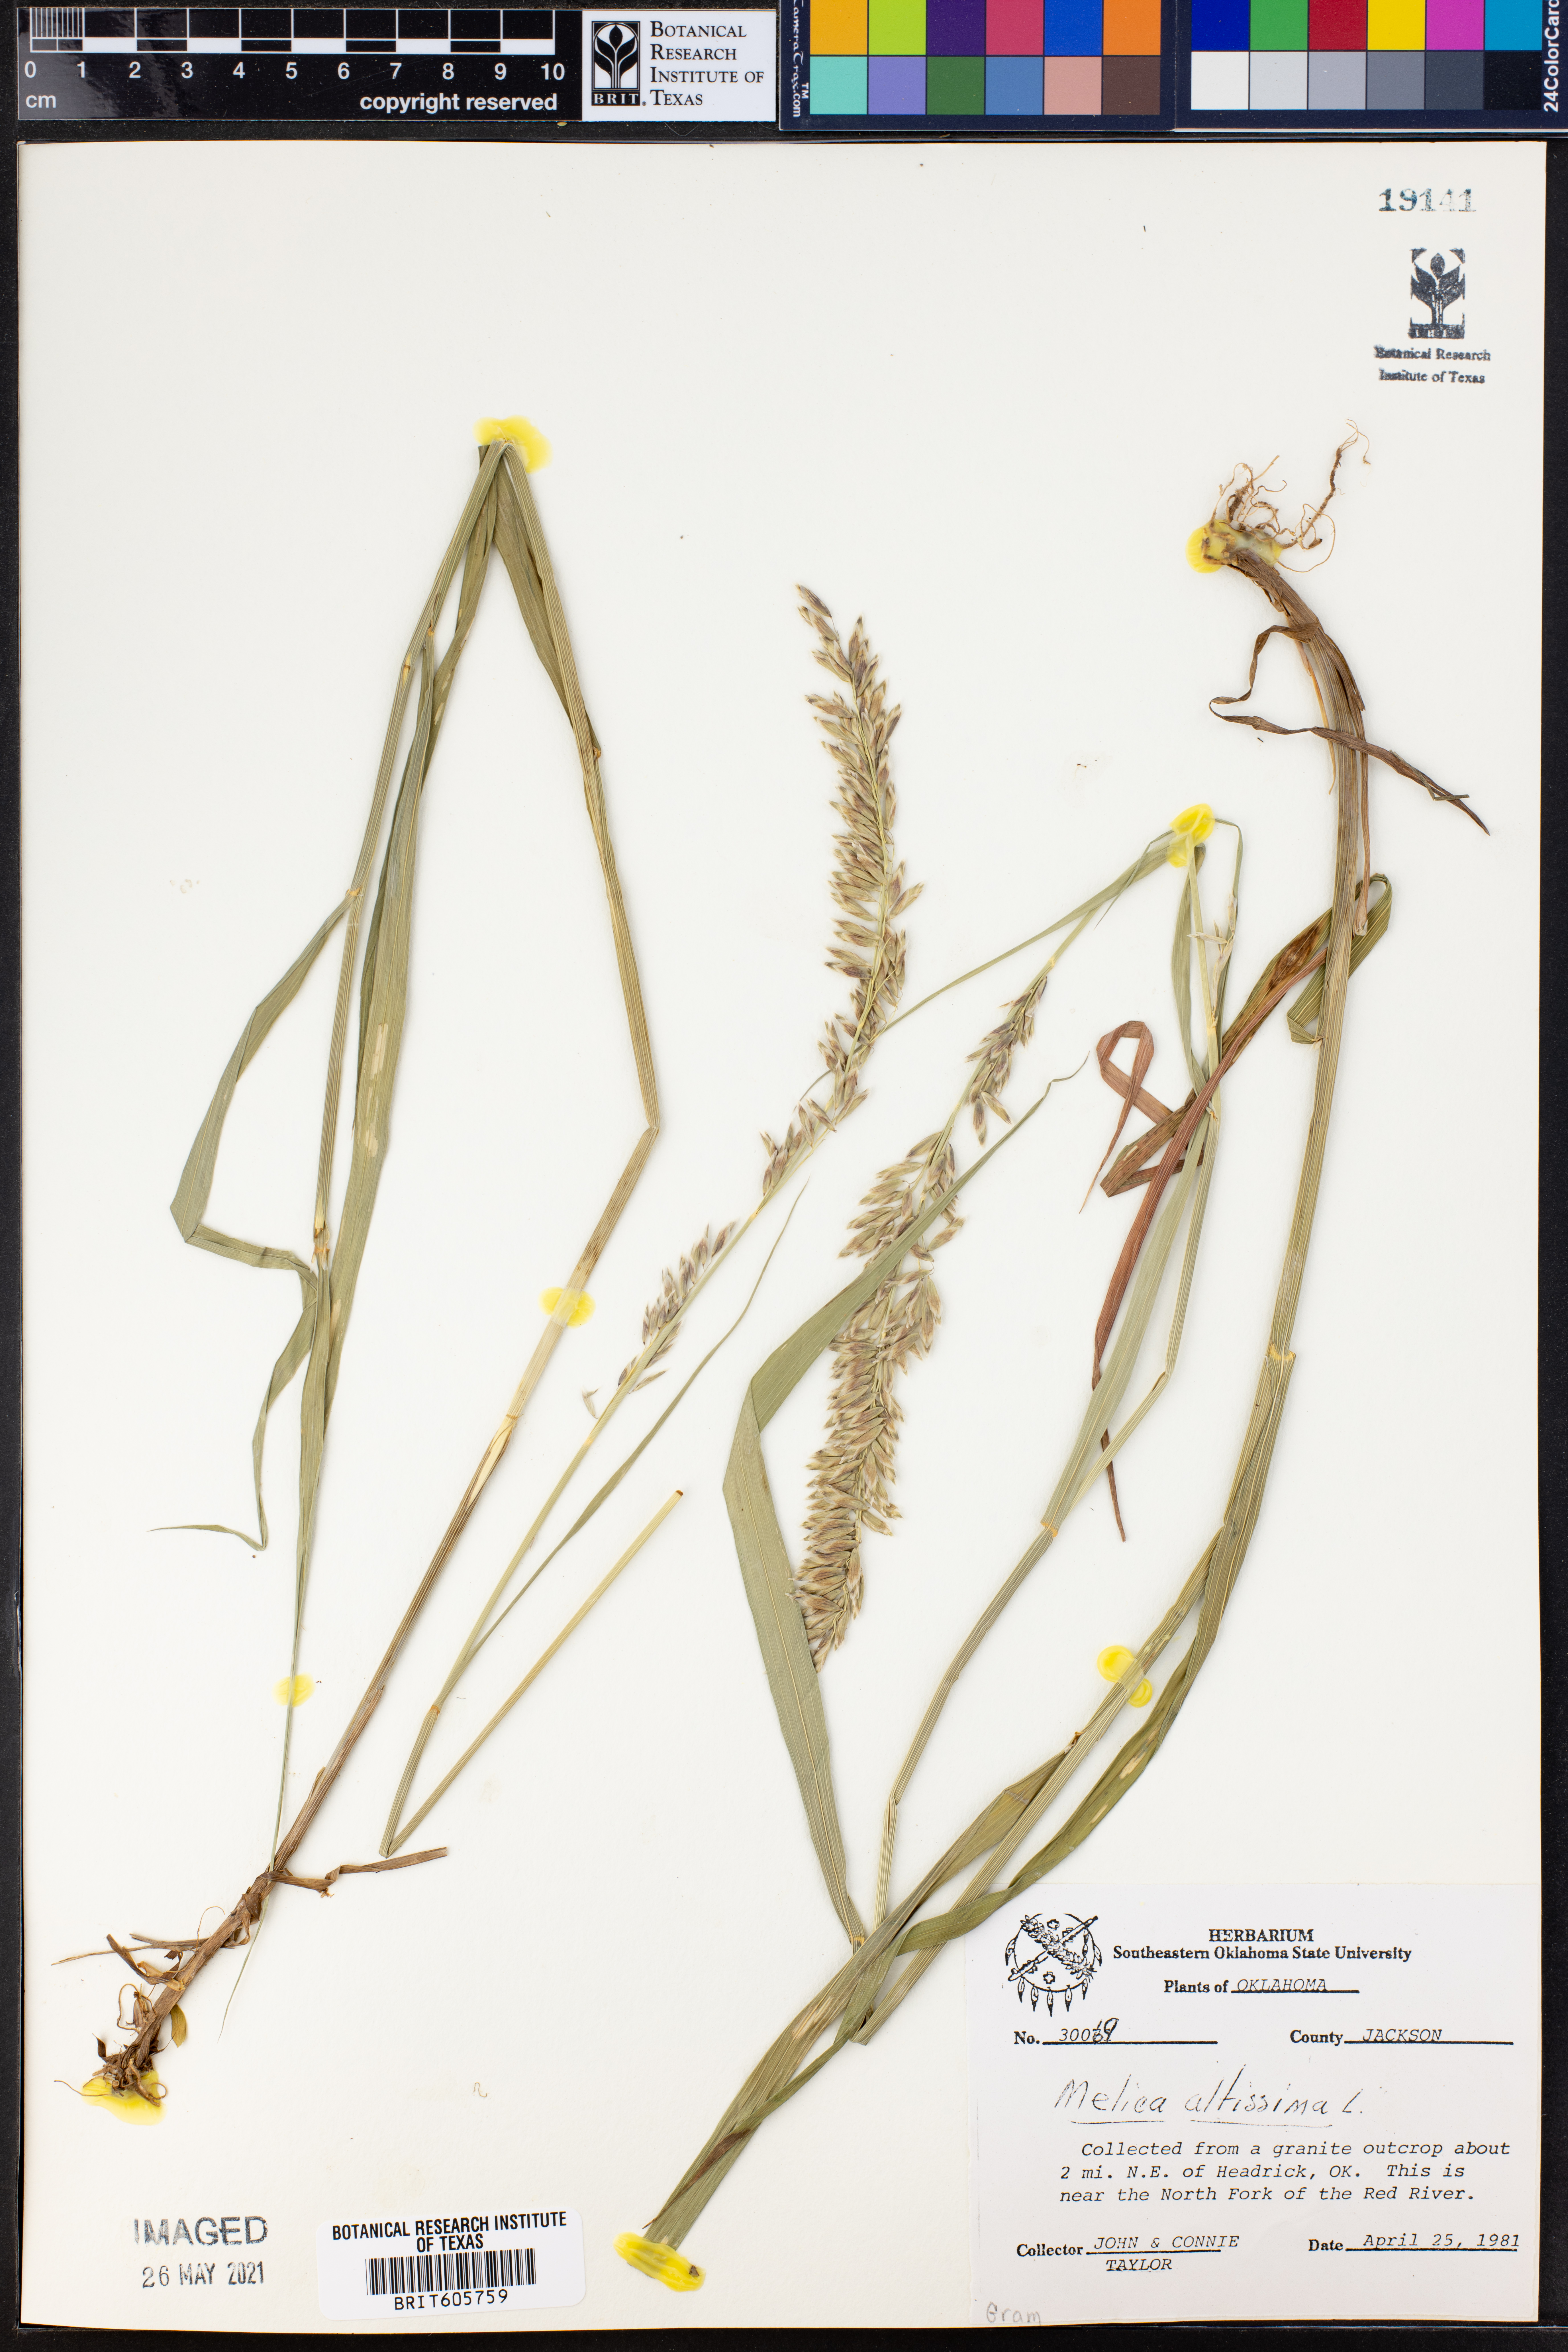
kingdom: Plantae
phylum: Tracheophyta
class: Liliopsida
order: Poales
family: Poaceae
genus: Melica
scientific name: Melica altissima
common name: Siberian melicgrass
